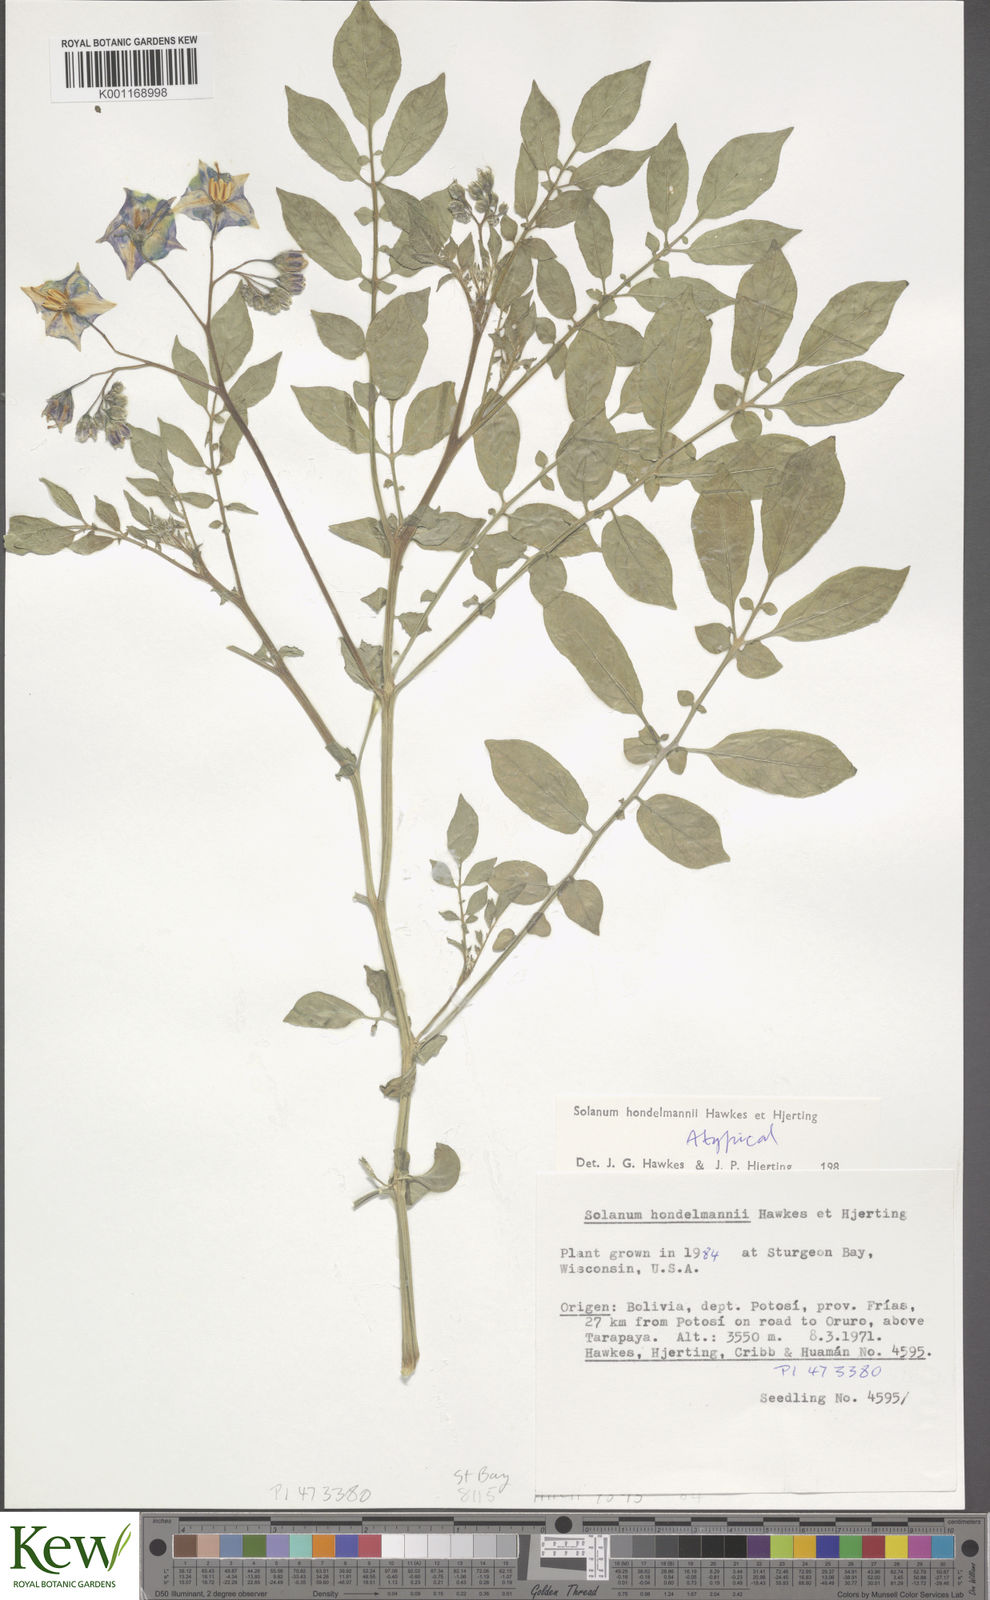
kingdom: Plantae
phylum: Tracheophyta
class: Magnoliopsida
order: Solanales
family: Solanaceae
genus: Solanum
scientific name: Solanum brevicaule
